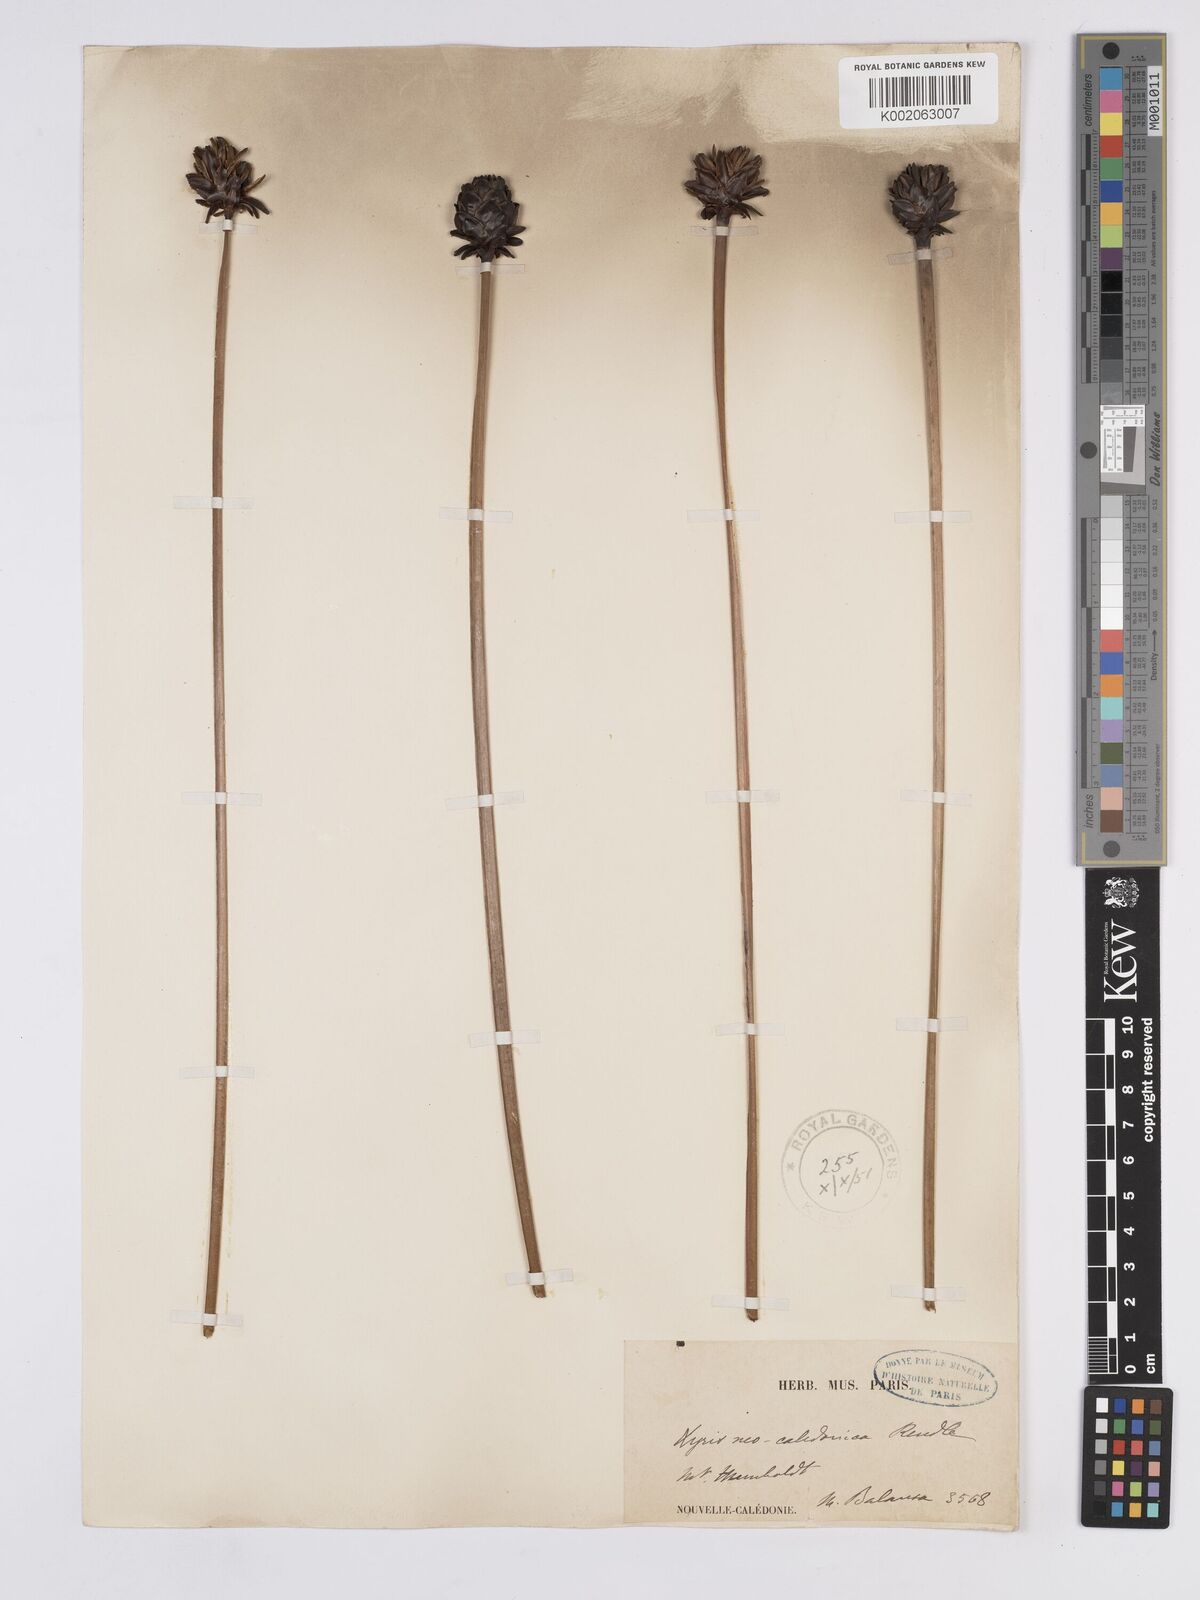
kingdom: Plantae
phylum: Tracheophyta
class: Liliopsida
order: Poales
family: Xyridaceae
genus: Xyris
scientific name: Xyris neocaledonica
